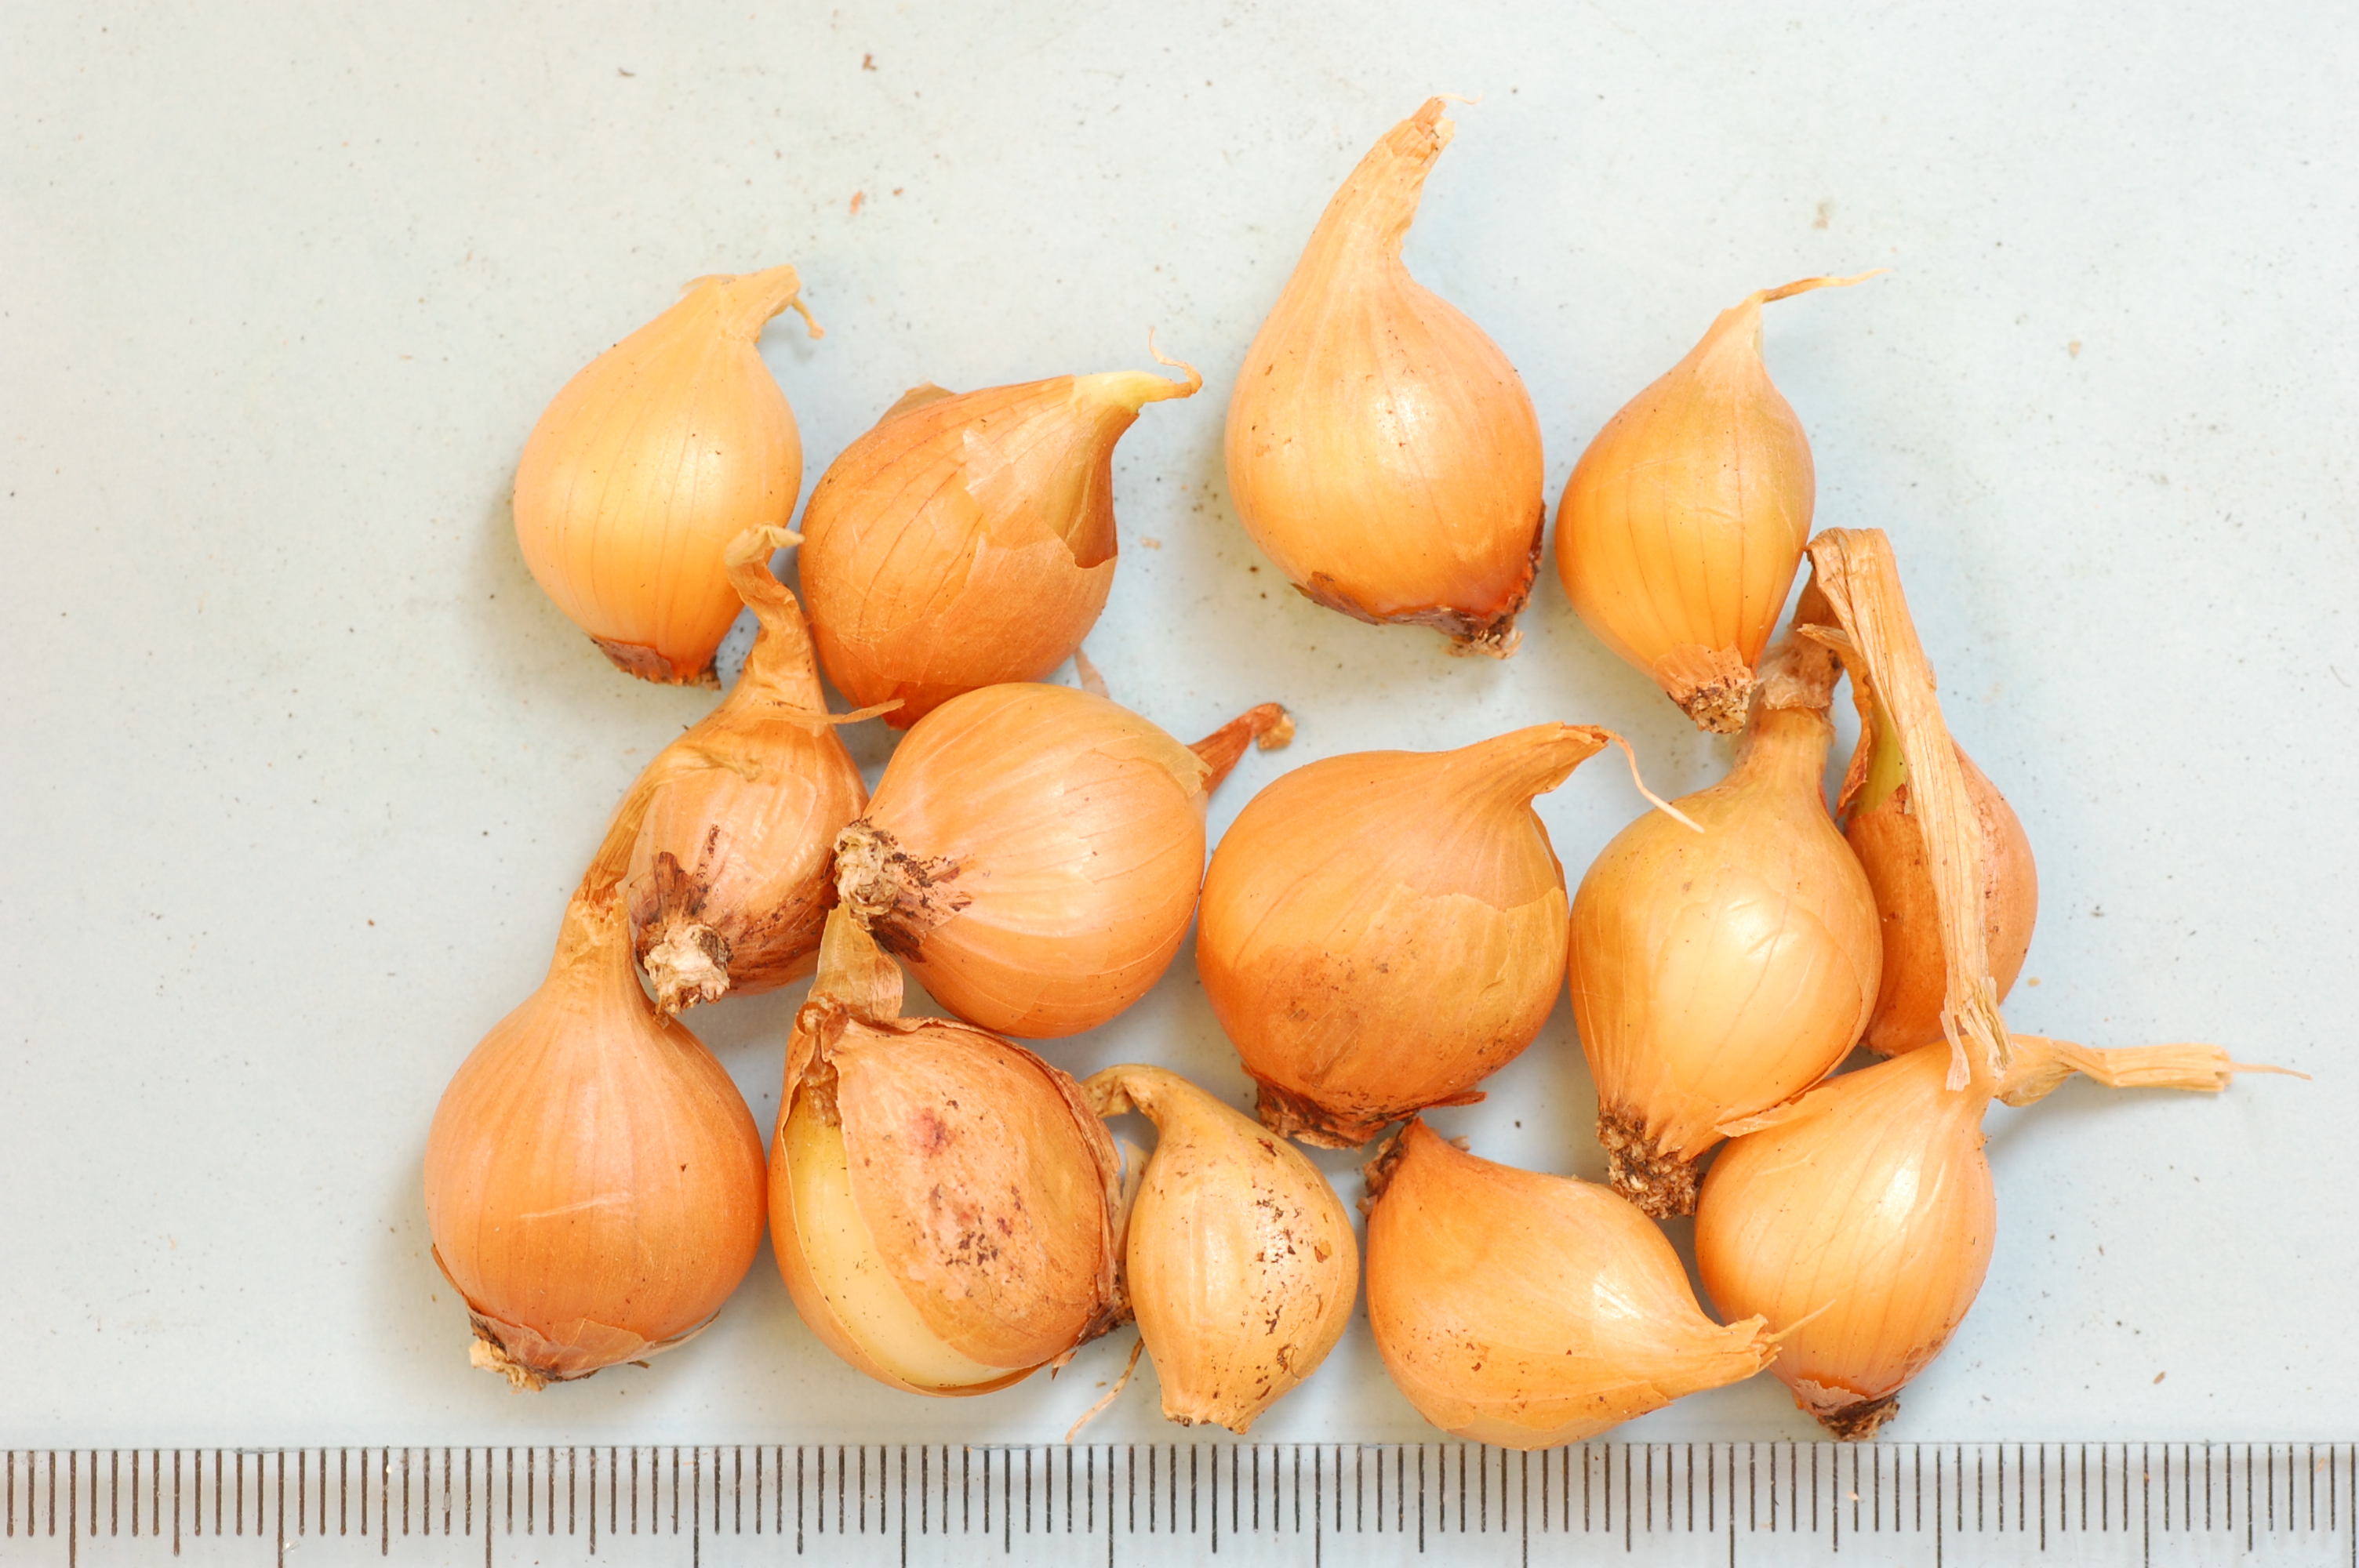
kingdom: Plantae
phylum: Tracheophyta
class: Liliopsida
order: Asparagales
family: Amaryllidaceae
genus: Allium
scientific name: Allium cepa
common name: Onion
